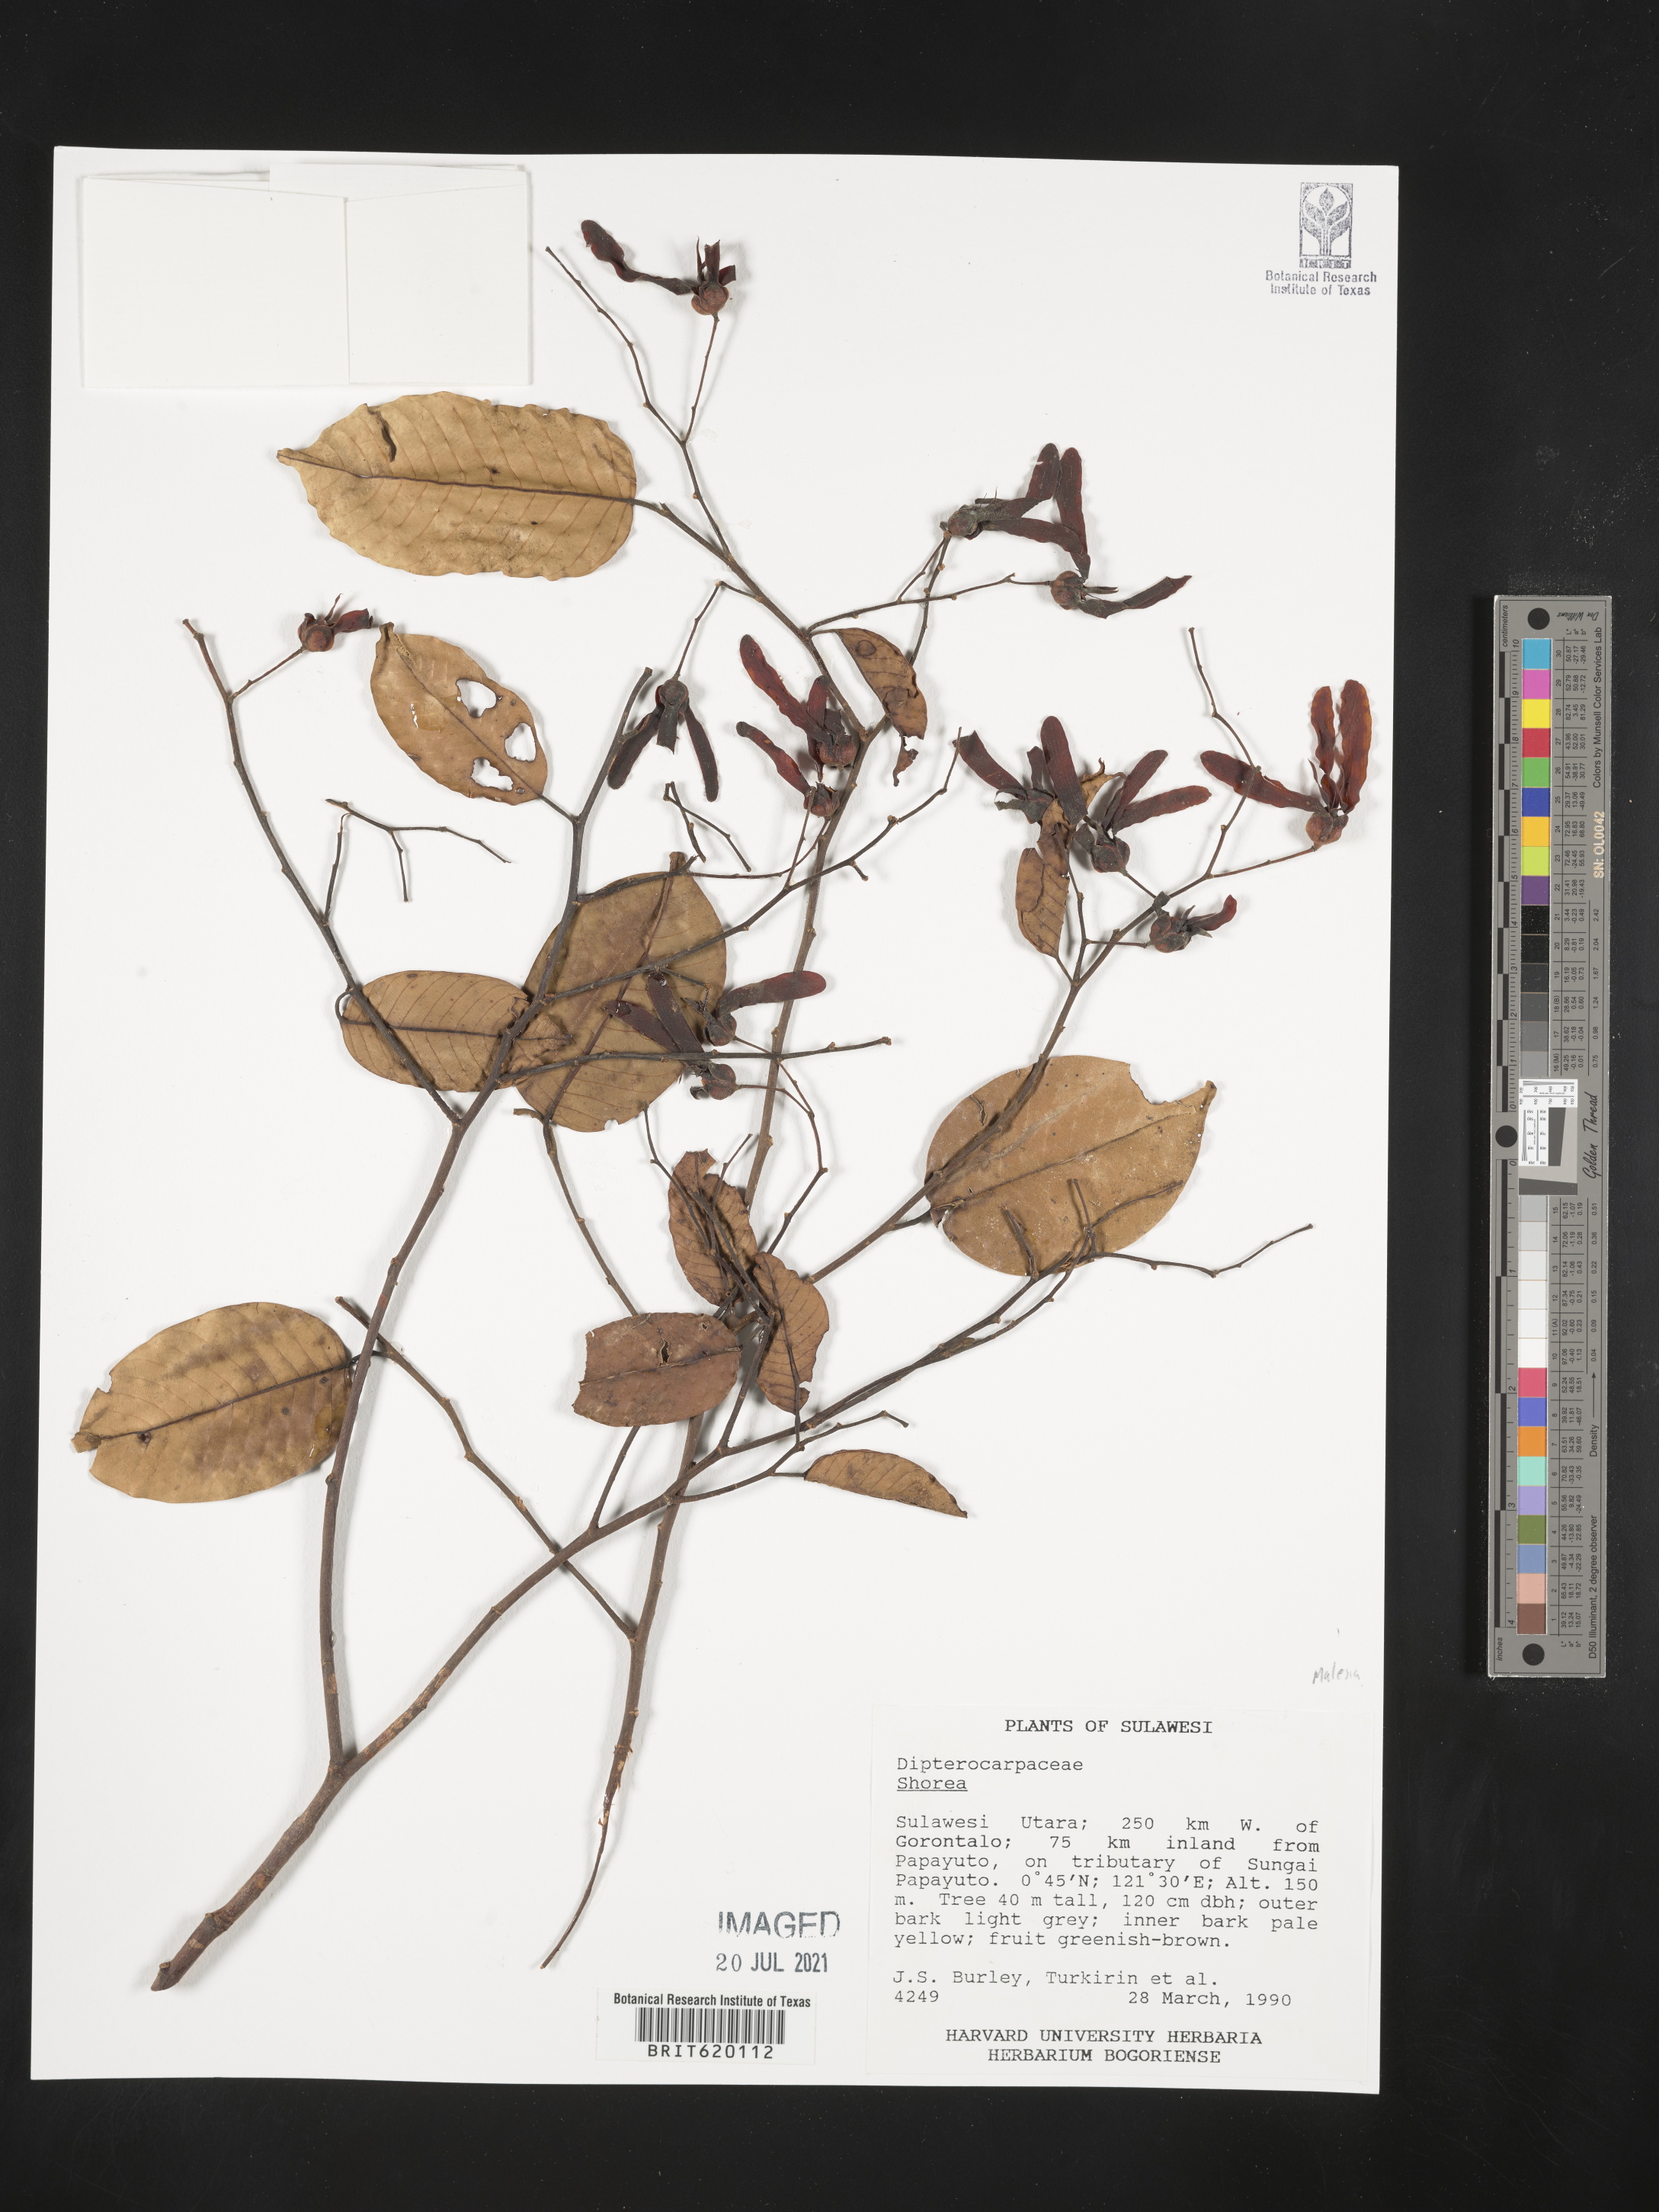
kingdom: Plantae
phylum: Tracheophyta
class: Magnoliopsida
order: Malvales
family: Dipterocarpaceae
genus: Shorea
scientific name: Shorea
